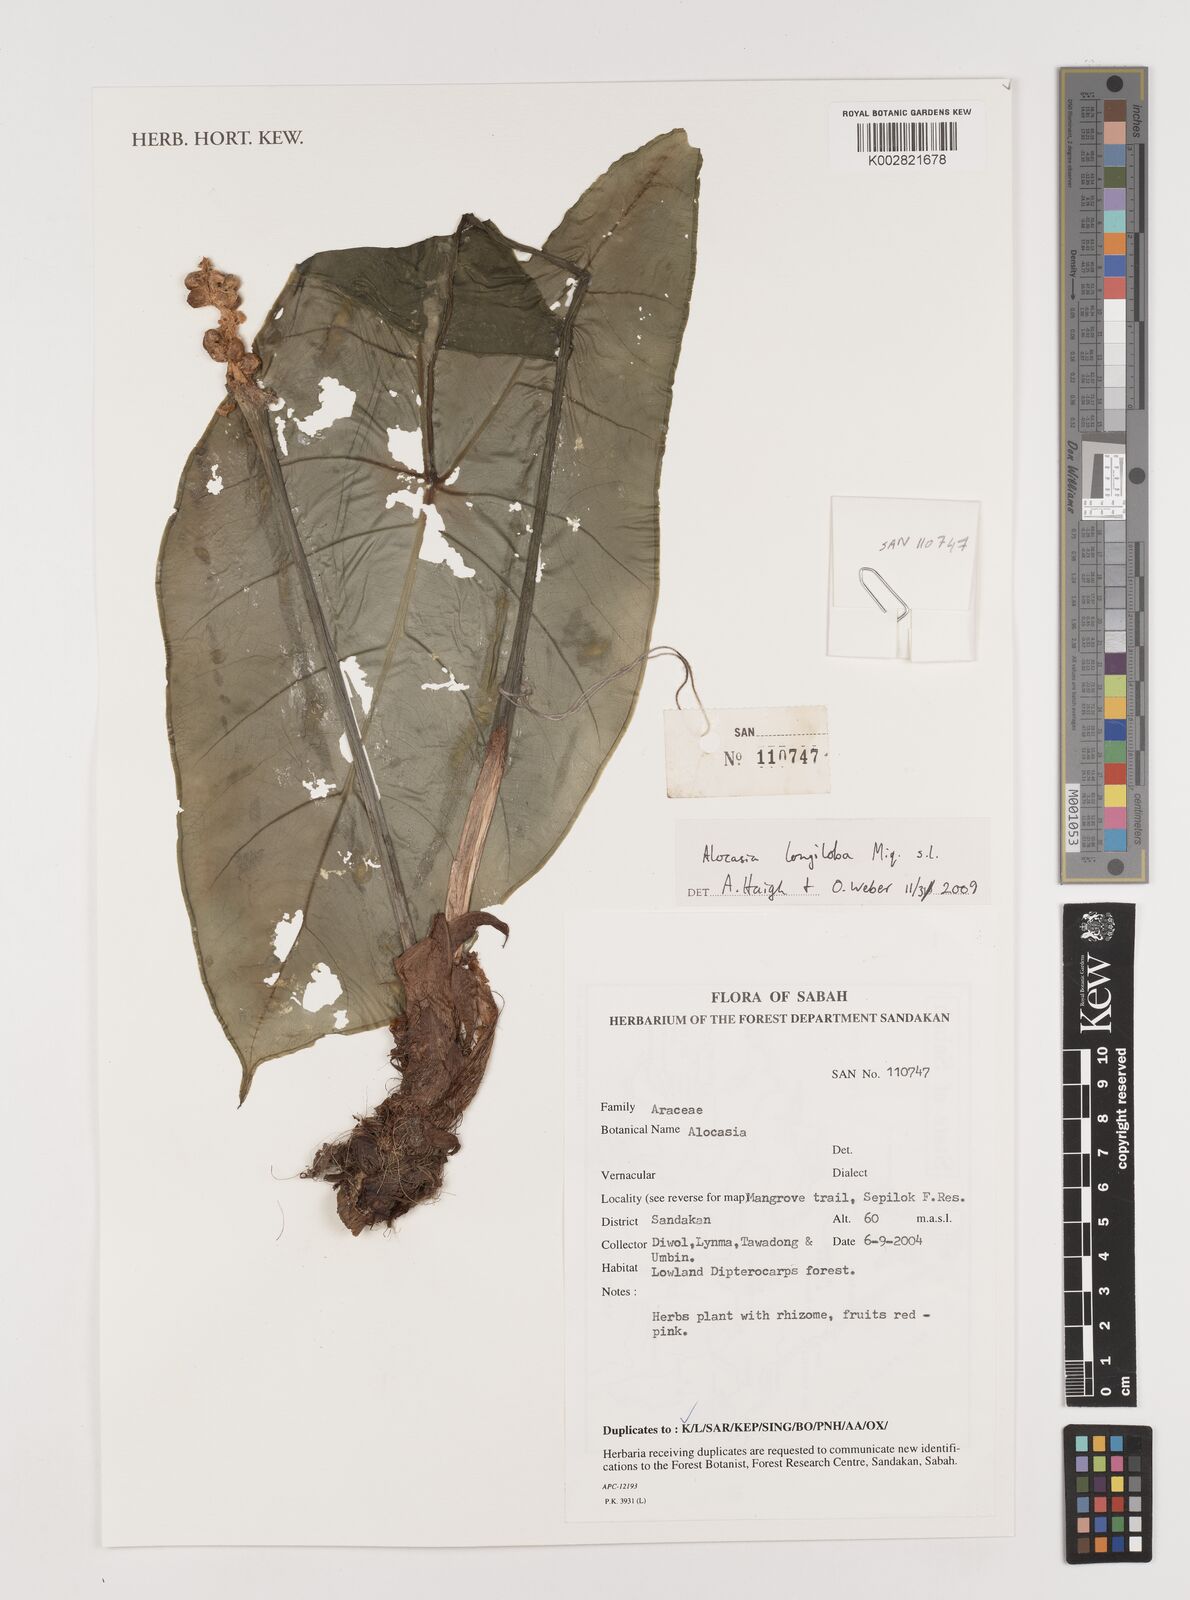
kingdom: Plantae
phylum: Tracheophyta
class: Liliopsida
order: Alismatales
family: Araceae
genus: Alocasia
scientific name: Alocasia longiloba
